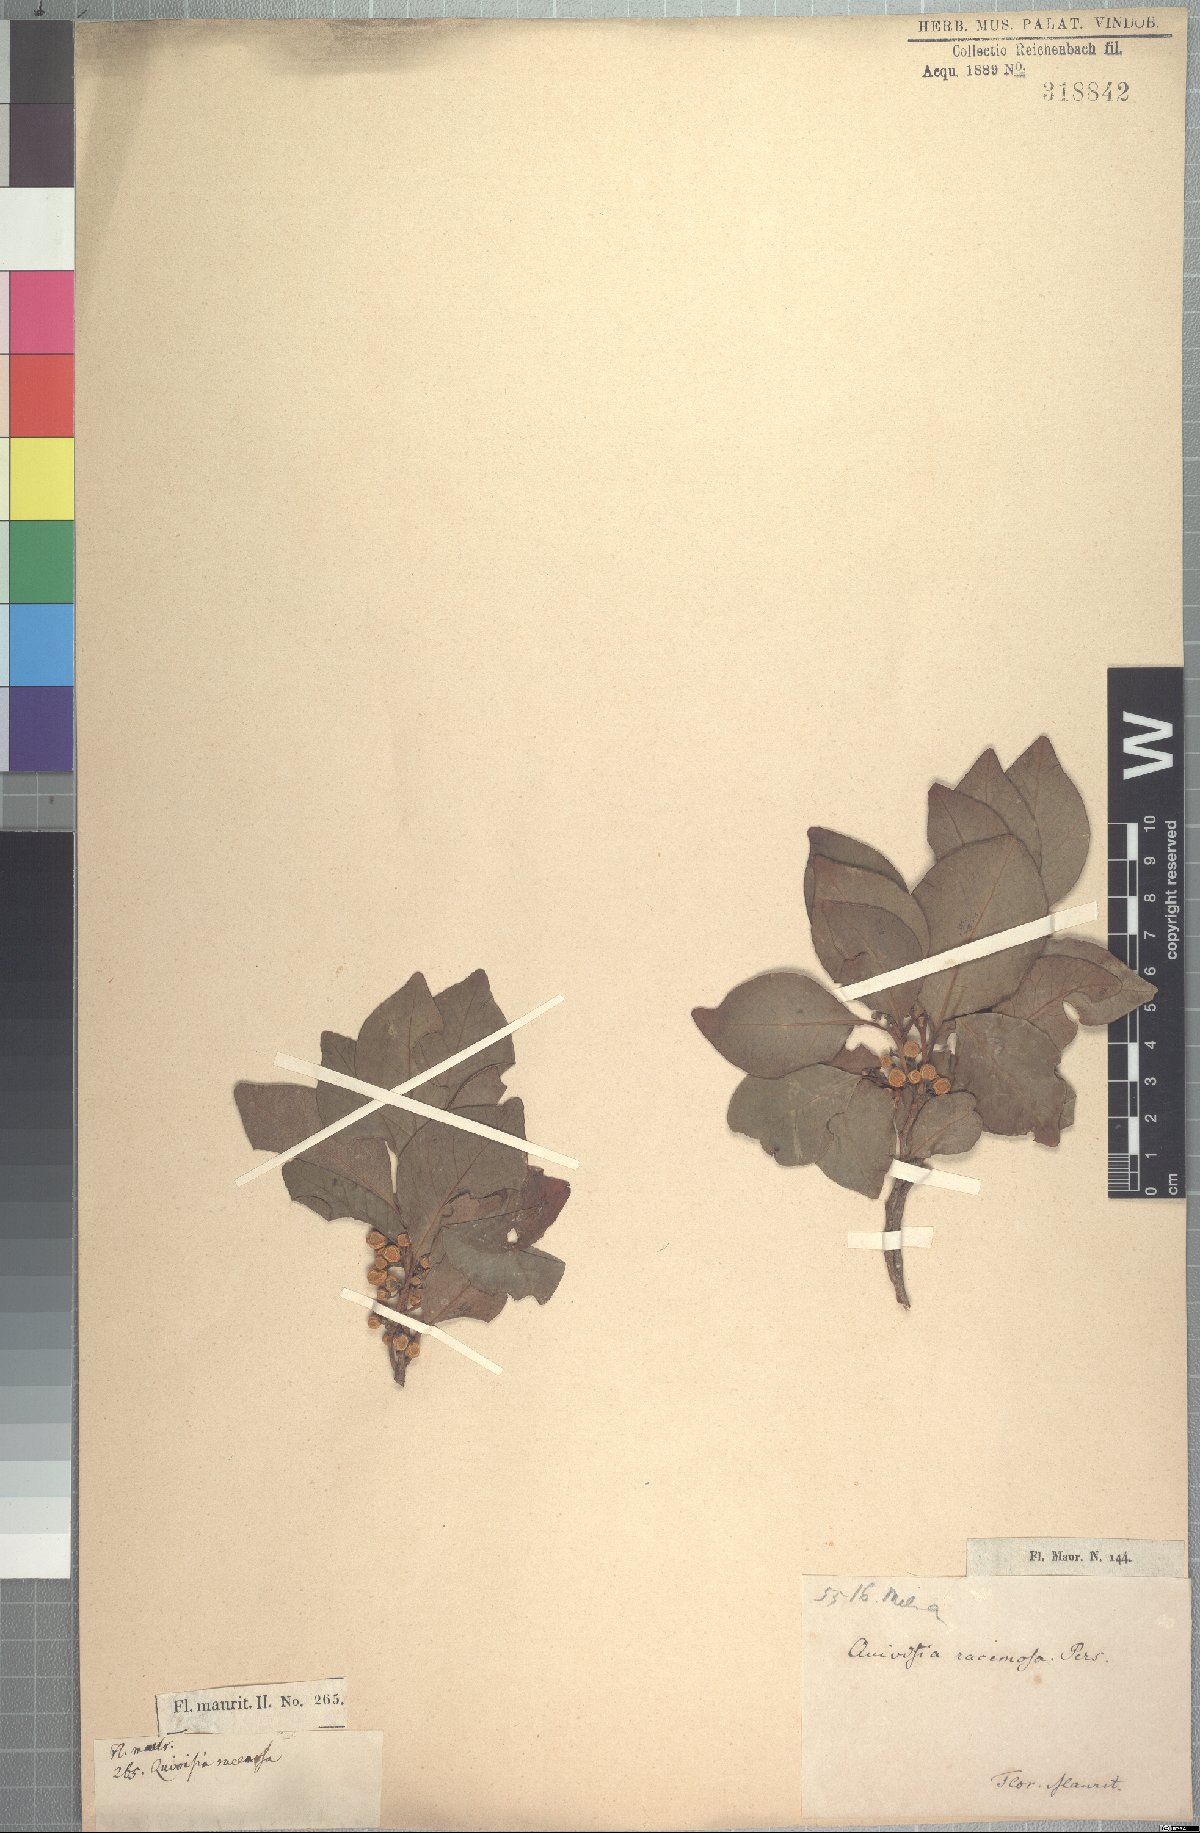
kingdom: Plantae
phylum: Tracheophyta
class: Magnoliopsida
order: Sapindales
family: Meliaceae
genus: Turraea
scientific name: Turraea rutilans
